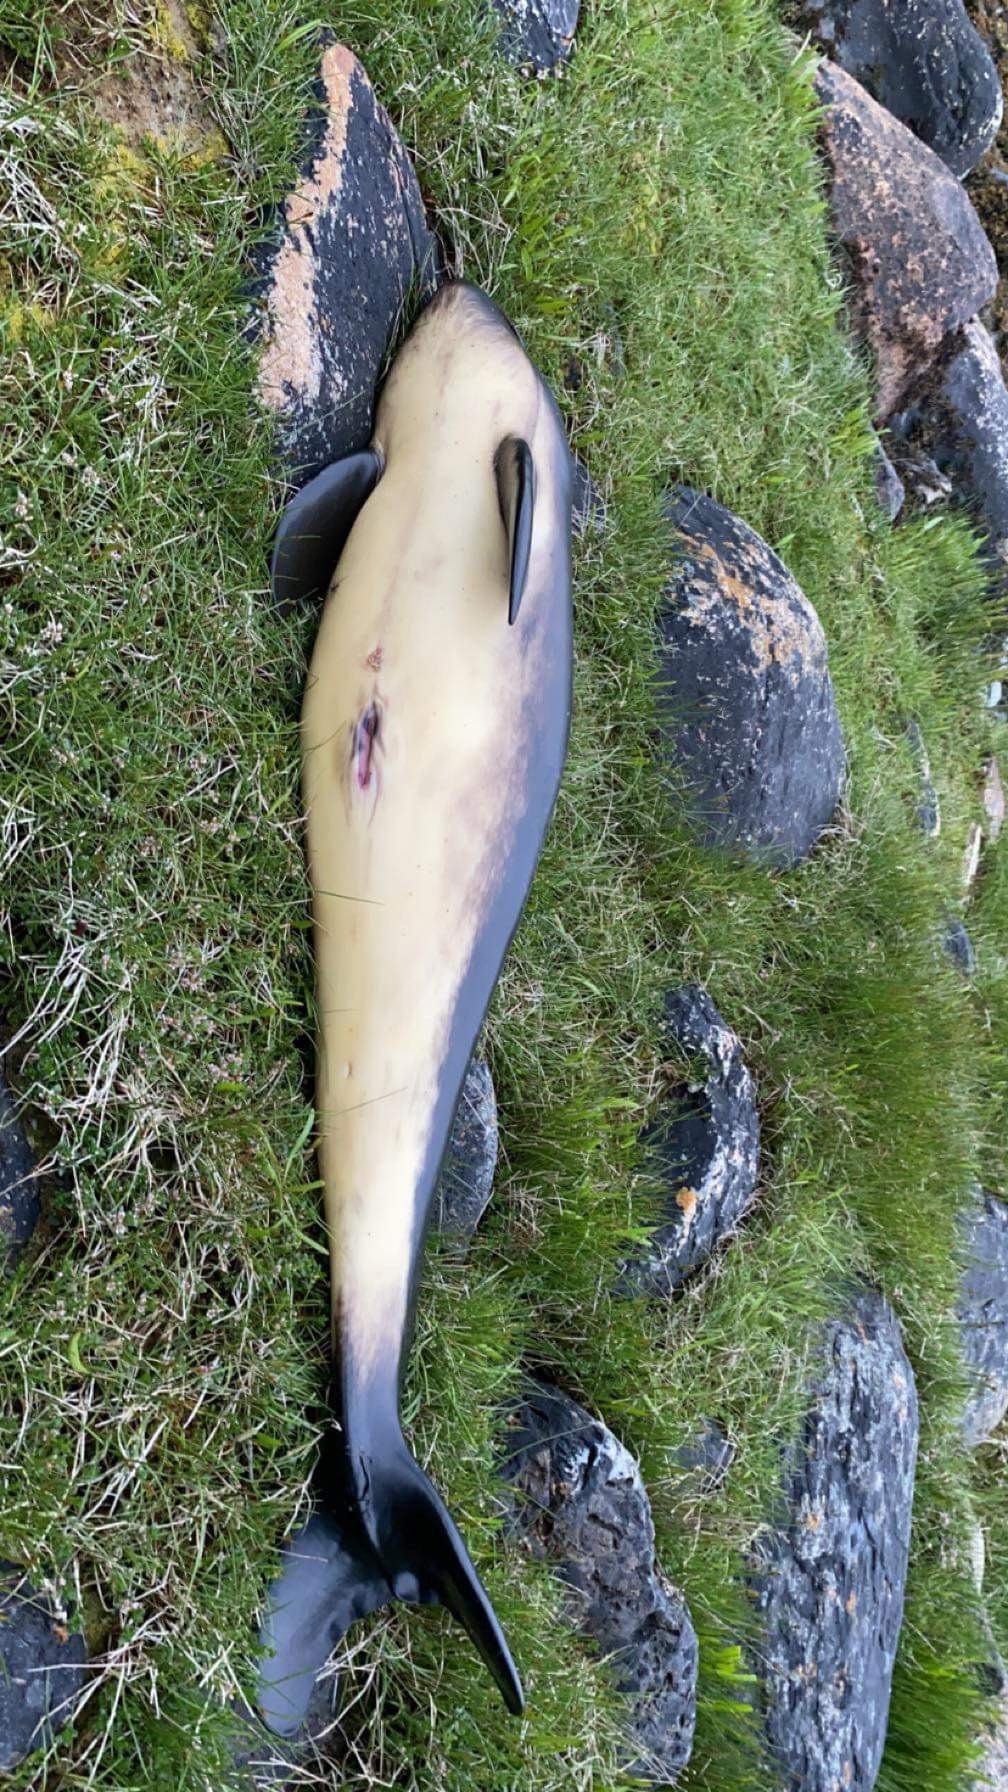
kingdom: Animalia
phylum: Chordata
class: Mammalia
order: Cetacea
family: Phocoenidae
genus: Phocoena
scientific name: Phocoena phocoena
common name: Harbor porpoise
